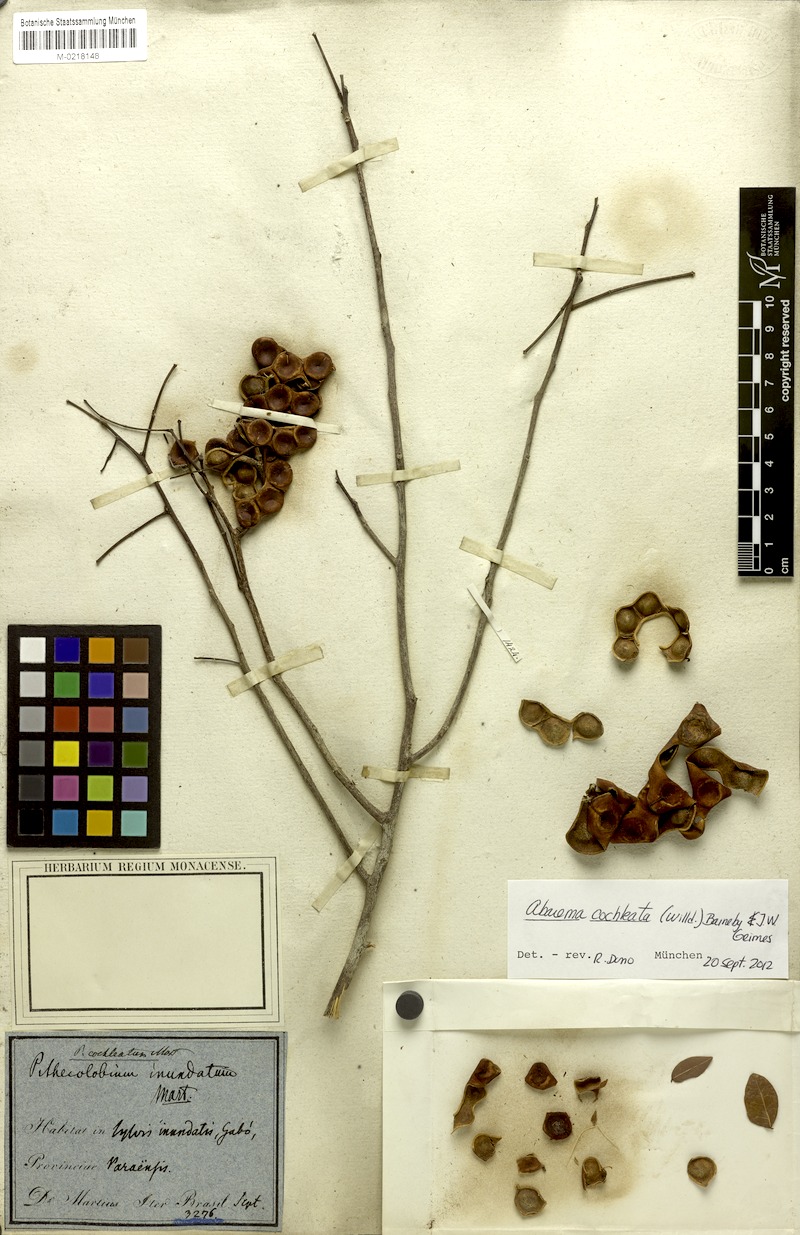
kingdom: Plantae
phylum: Tracheophyta
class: Magnoliopsida
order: Fabales
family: Fabaceae
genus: Jupunba
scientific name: Jupunba cochleata
